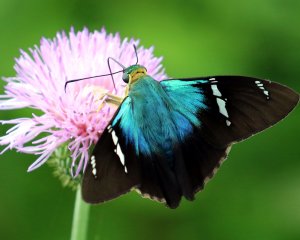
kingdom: Animalia
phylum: Arthropoda
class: Insecta
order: Lepidoptera
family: Hesperiidae
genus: Astraptes
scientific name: Astraptes fulgerator
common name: Two-barred Flasher
